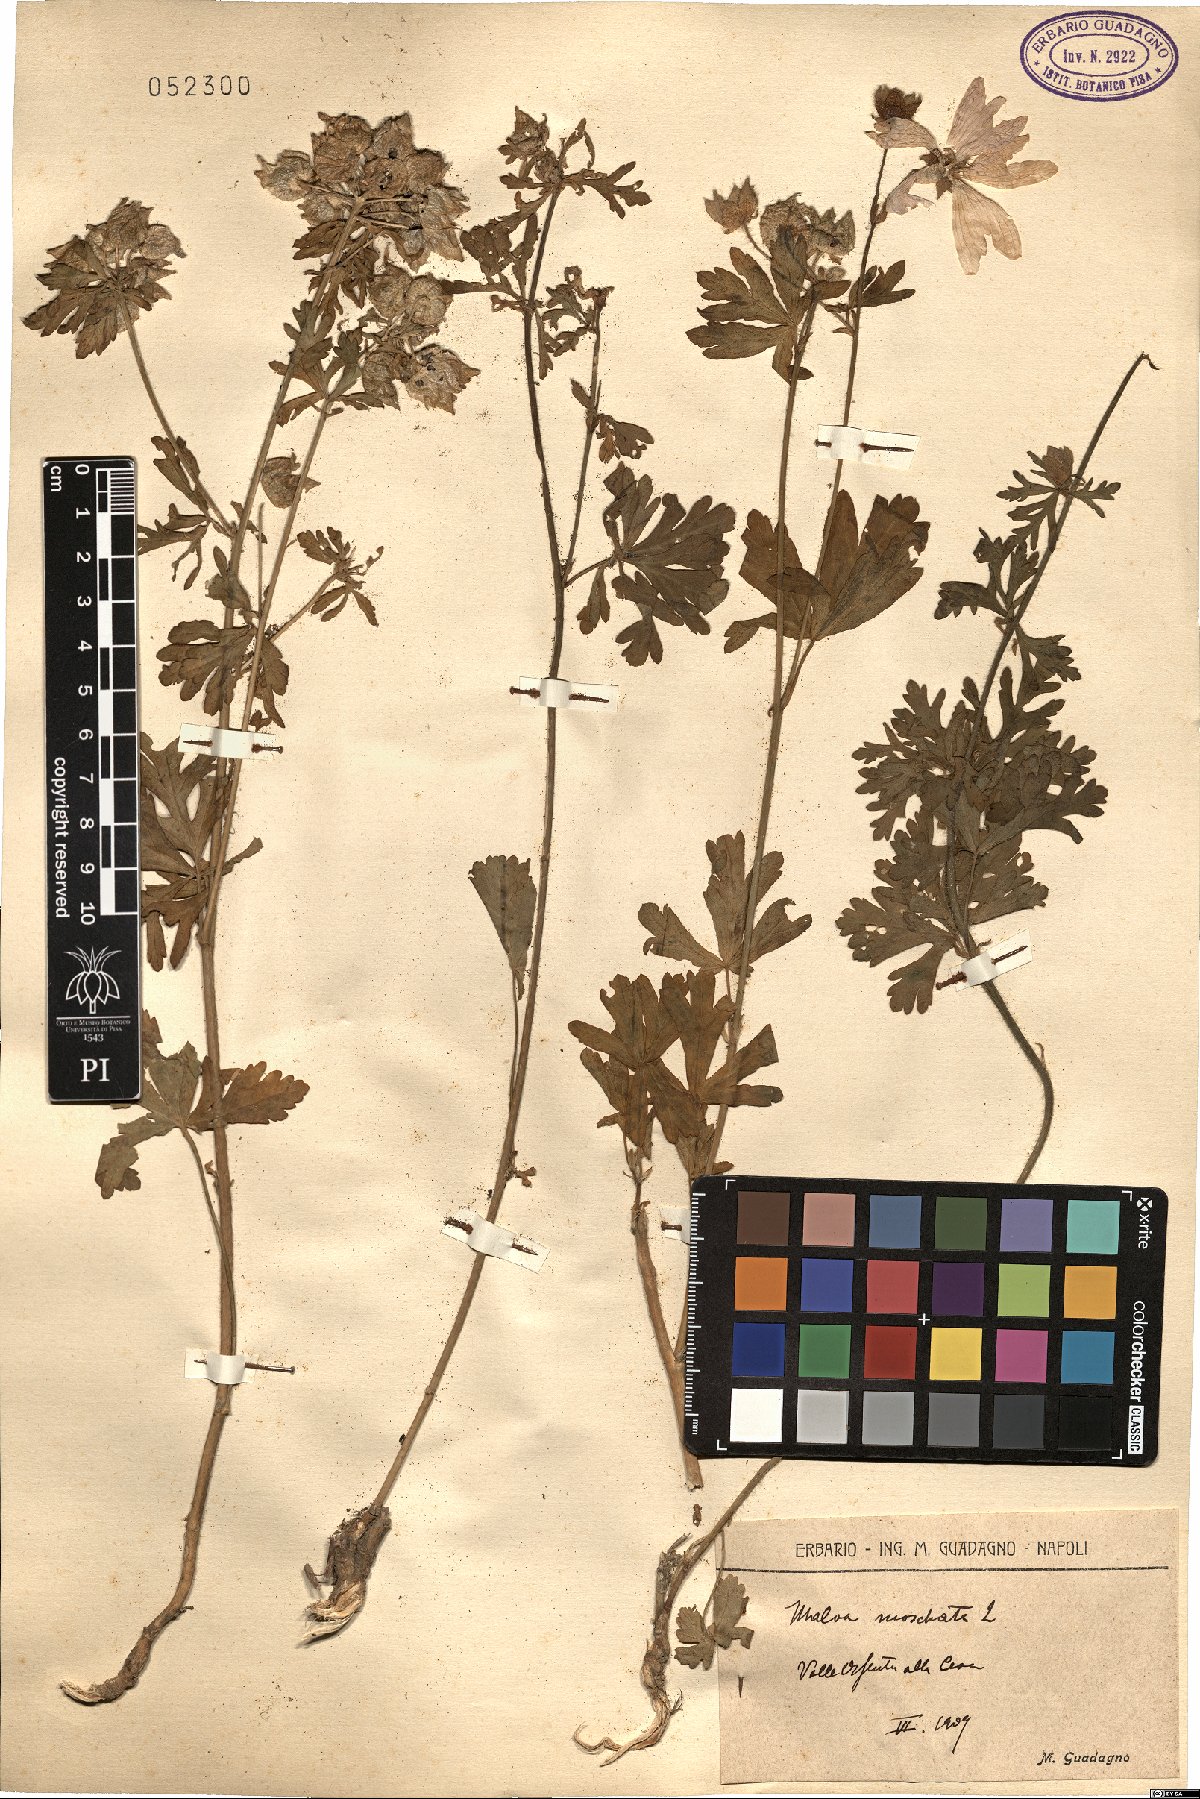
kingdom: Plantae
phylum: Tracheophyta
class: Magnoliopsida
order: Malvales
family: Malvaceae
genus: Malva
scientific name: Malva moschata
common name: Musk mallow
